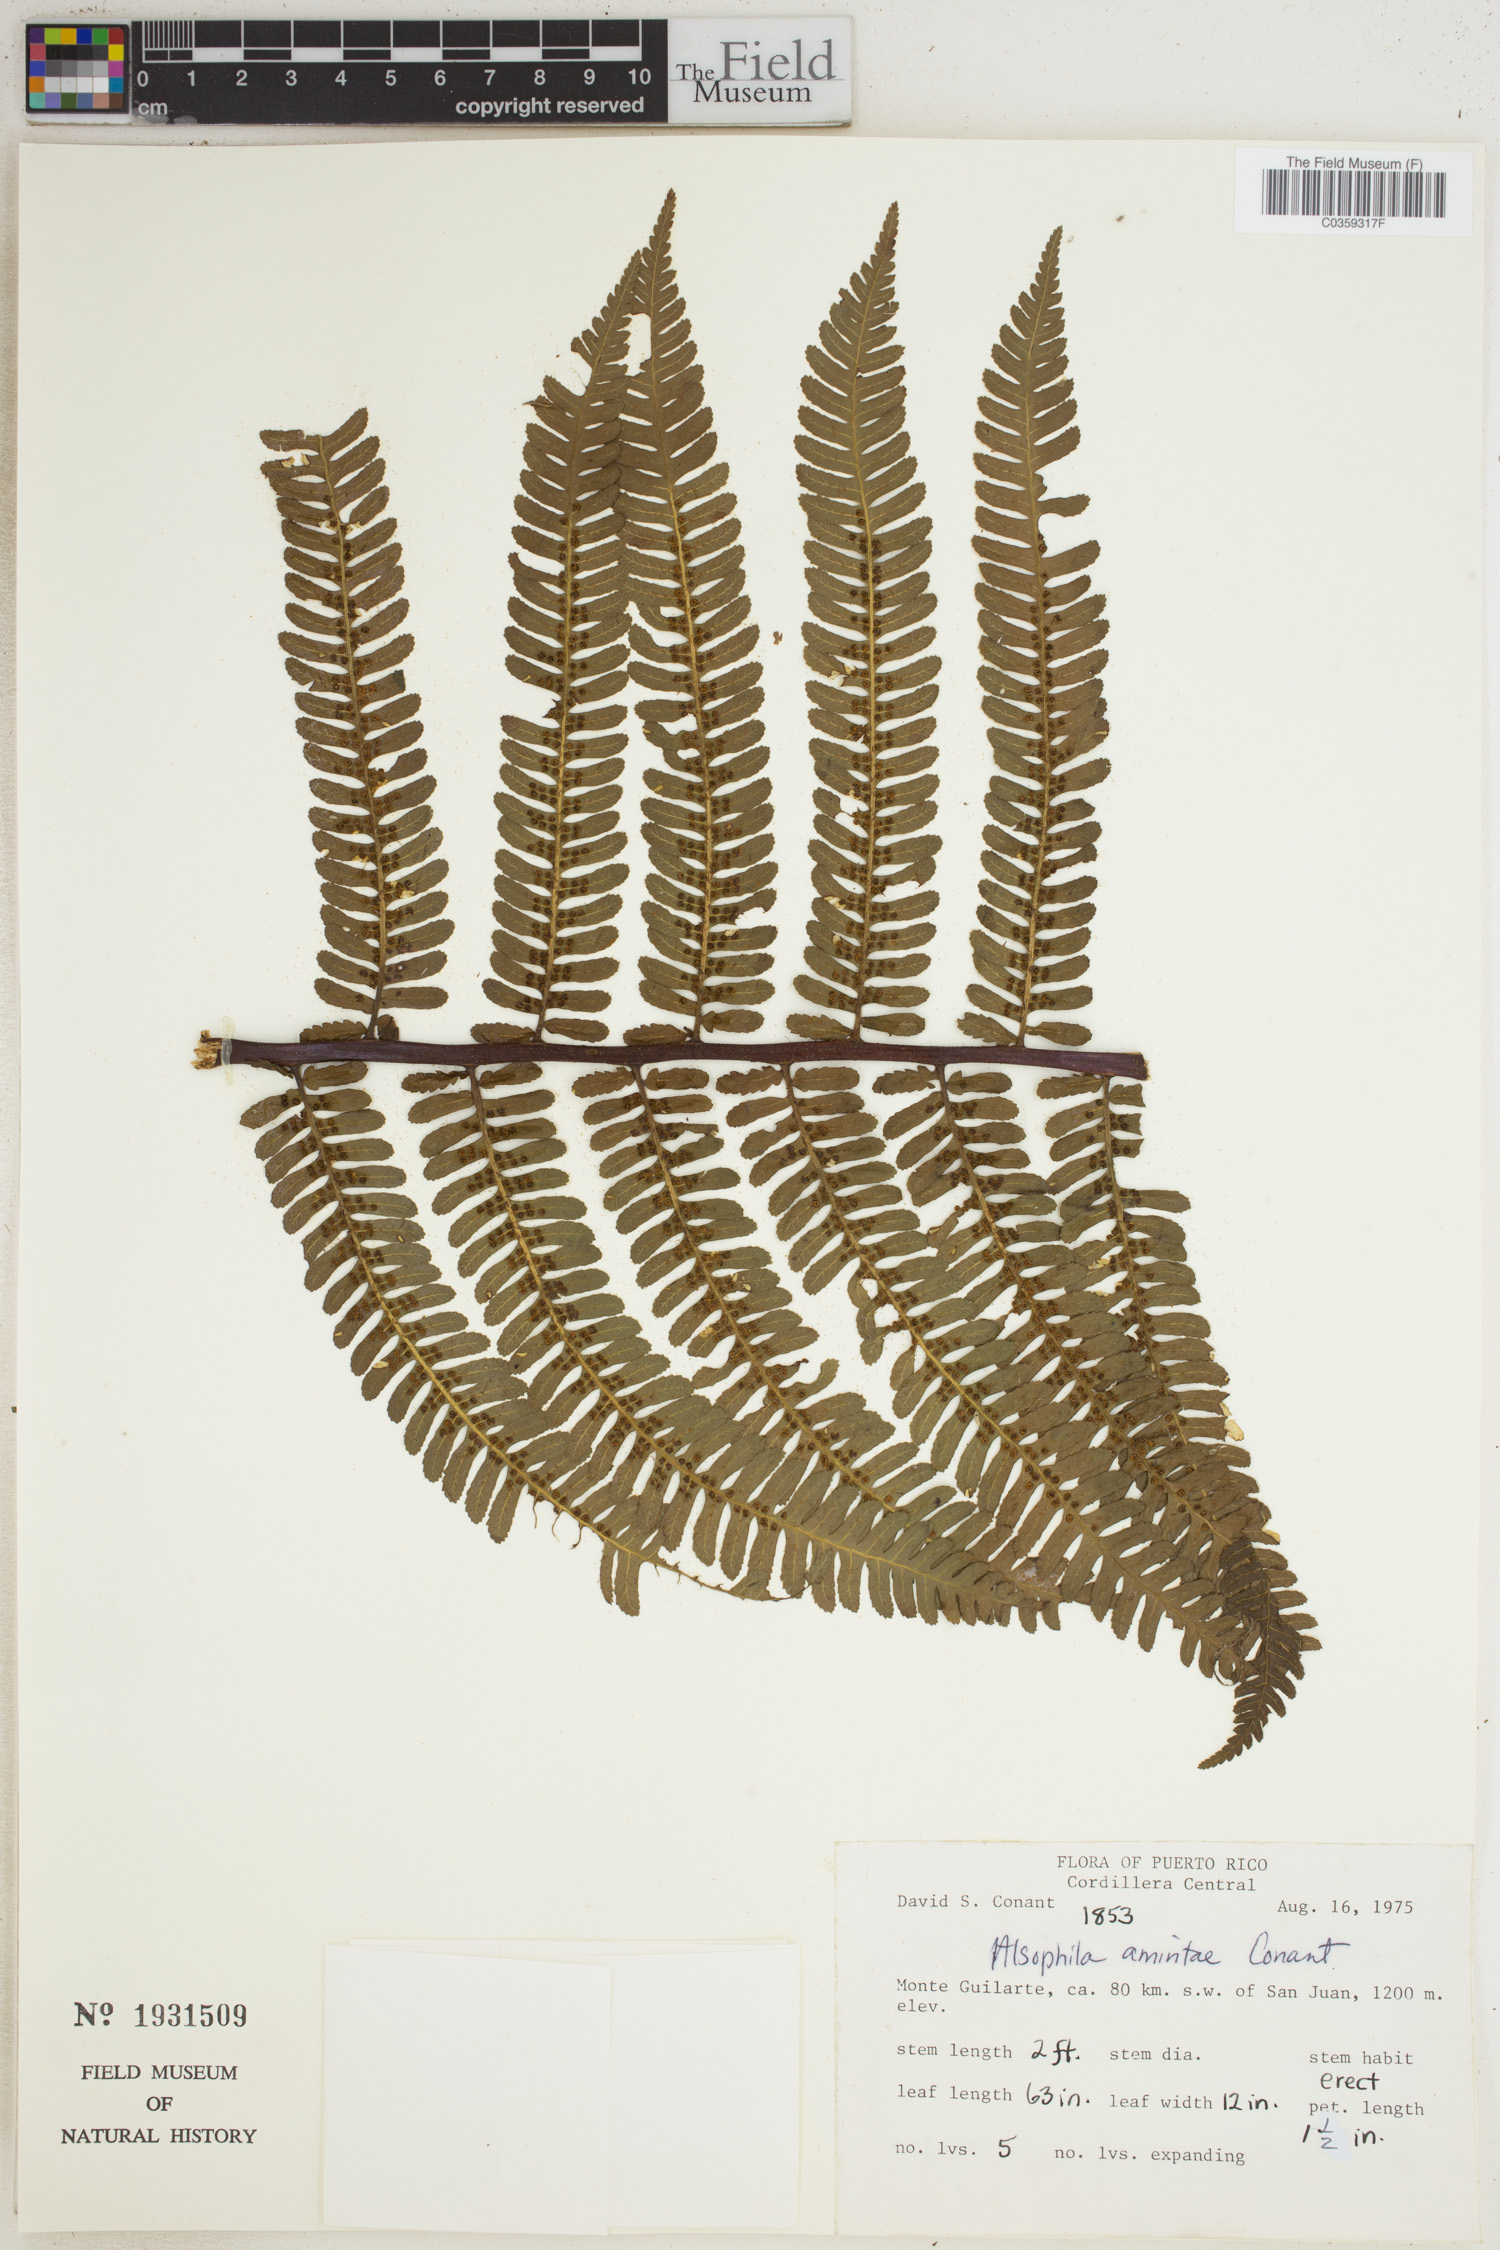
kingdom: Plantae
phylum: Tracheophyta
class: Polypodiopsida
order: Cyatheales
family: Cyatheaceae
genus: Alsophila
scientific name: Alsophila dryopteroides
